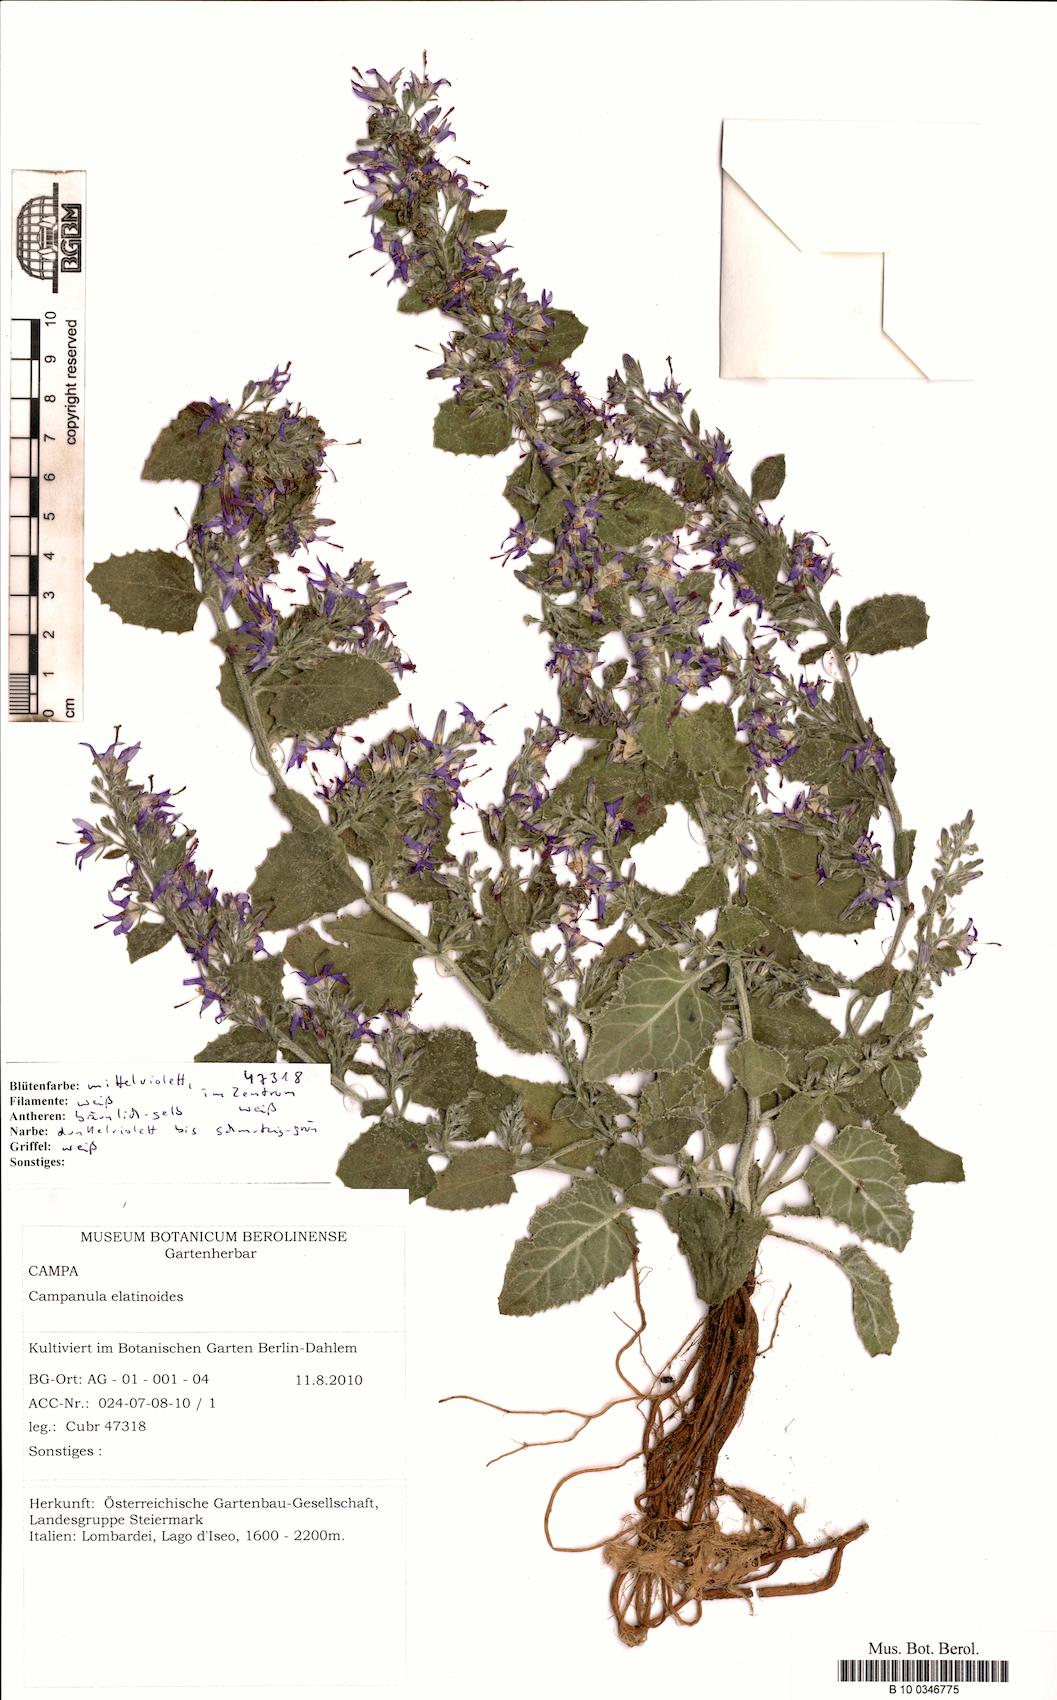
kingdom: Plantae
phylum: Tracheophyta
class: Magnoliopsida
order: Asterales
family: Campanulaceae
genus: Campanula
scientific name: Campanula elatinoides
